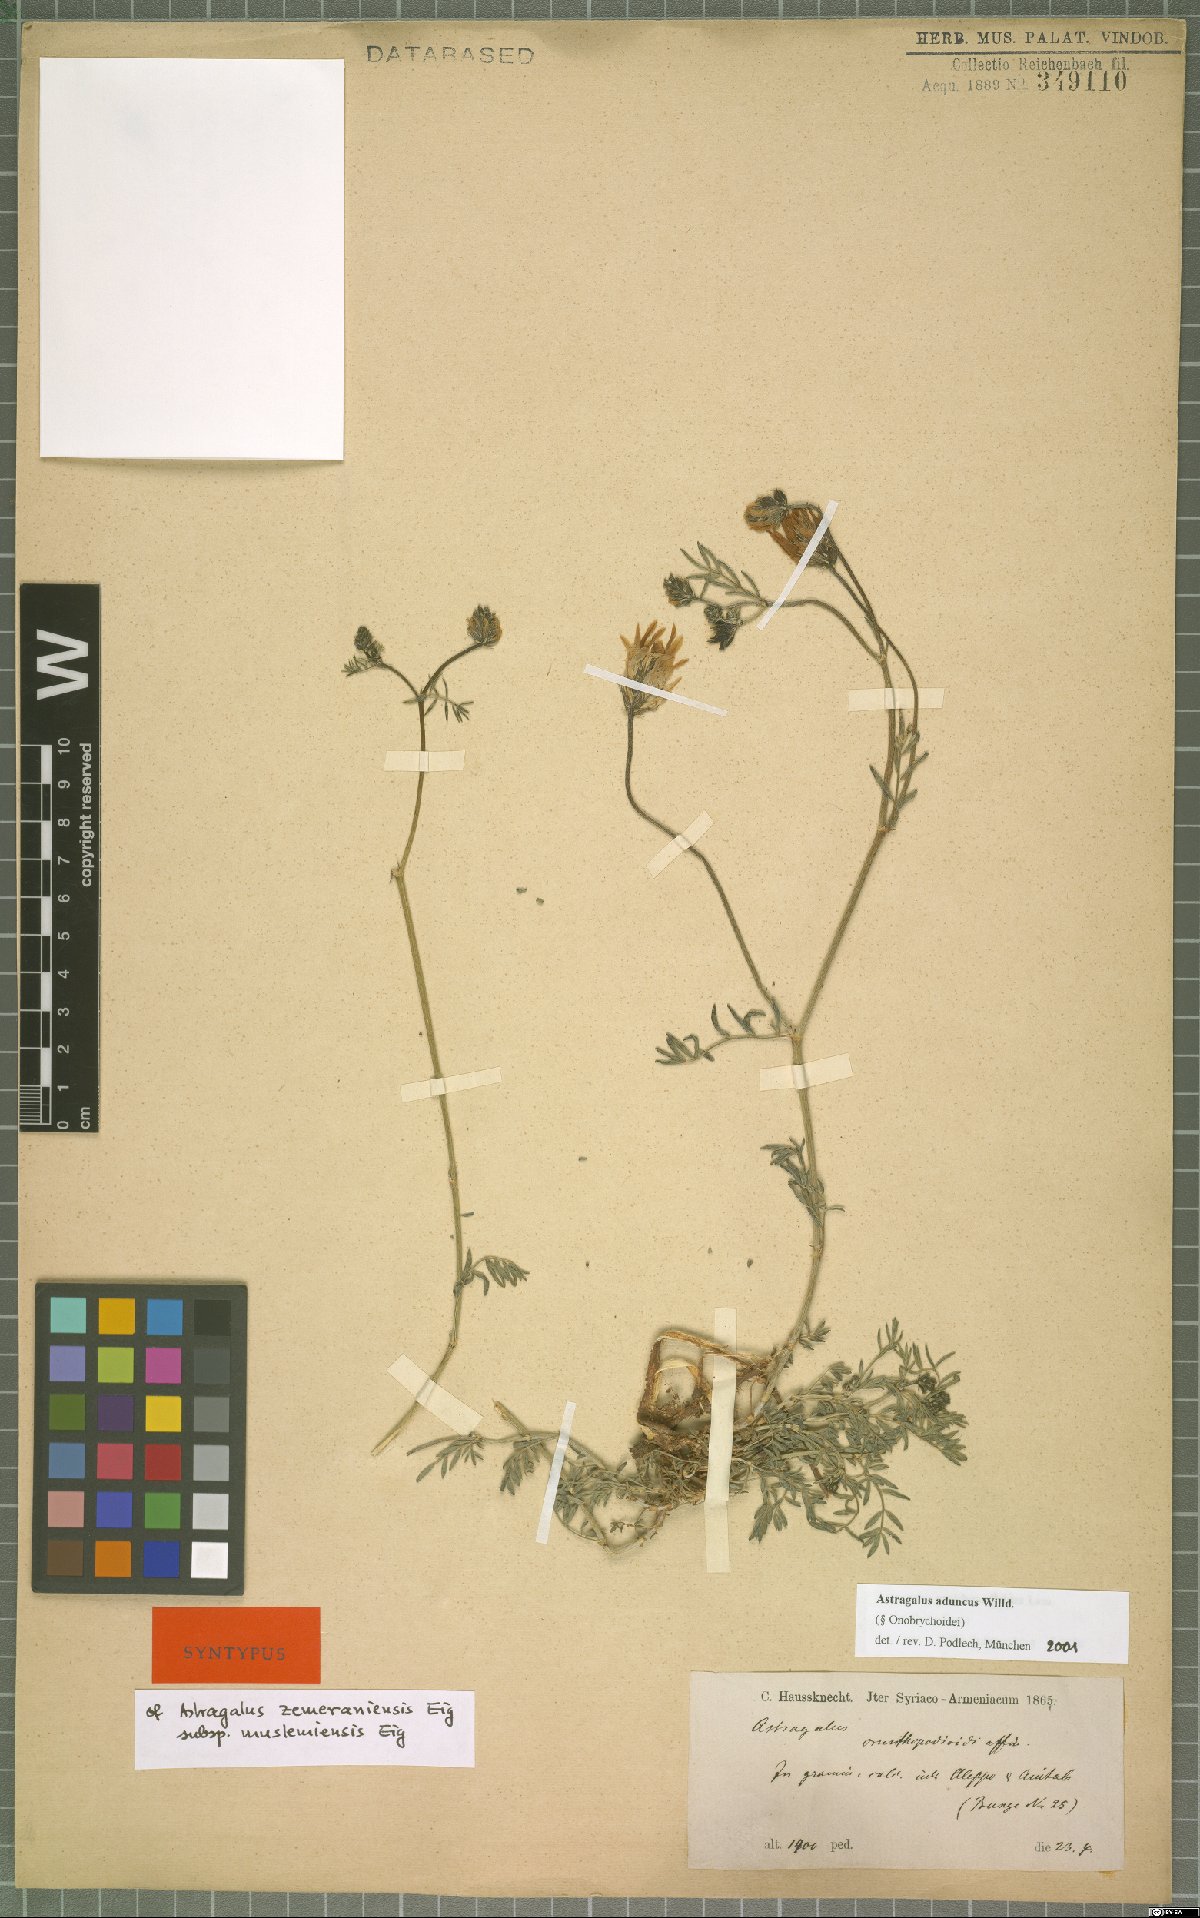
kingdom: Plantae
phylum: Tracheophyta
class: Magnoliopsida
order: Fabales
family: Fabaceae
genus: Astragalus
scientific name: Astragalus aduncus
